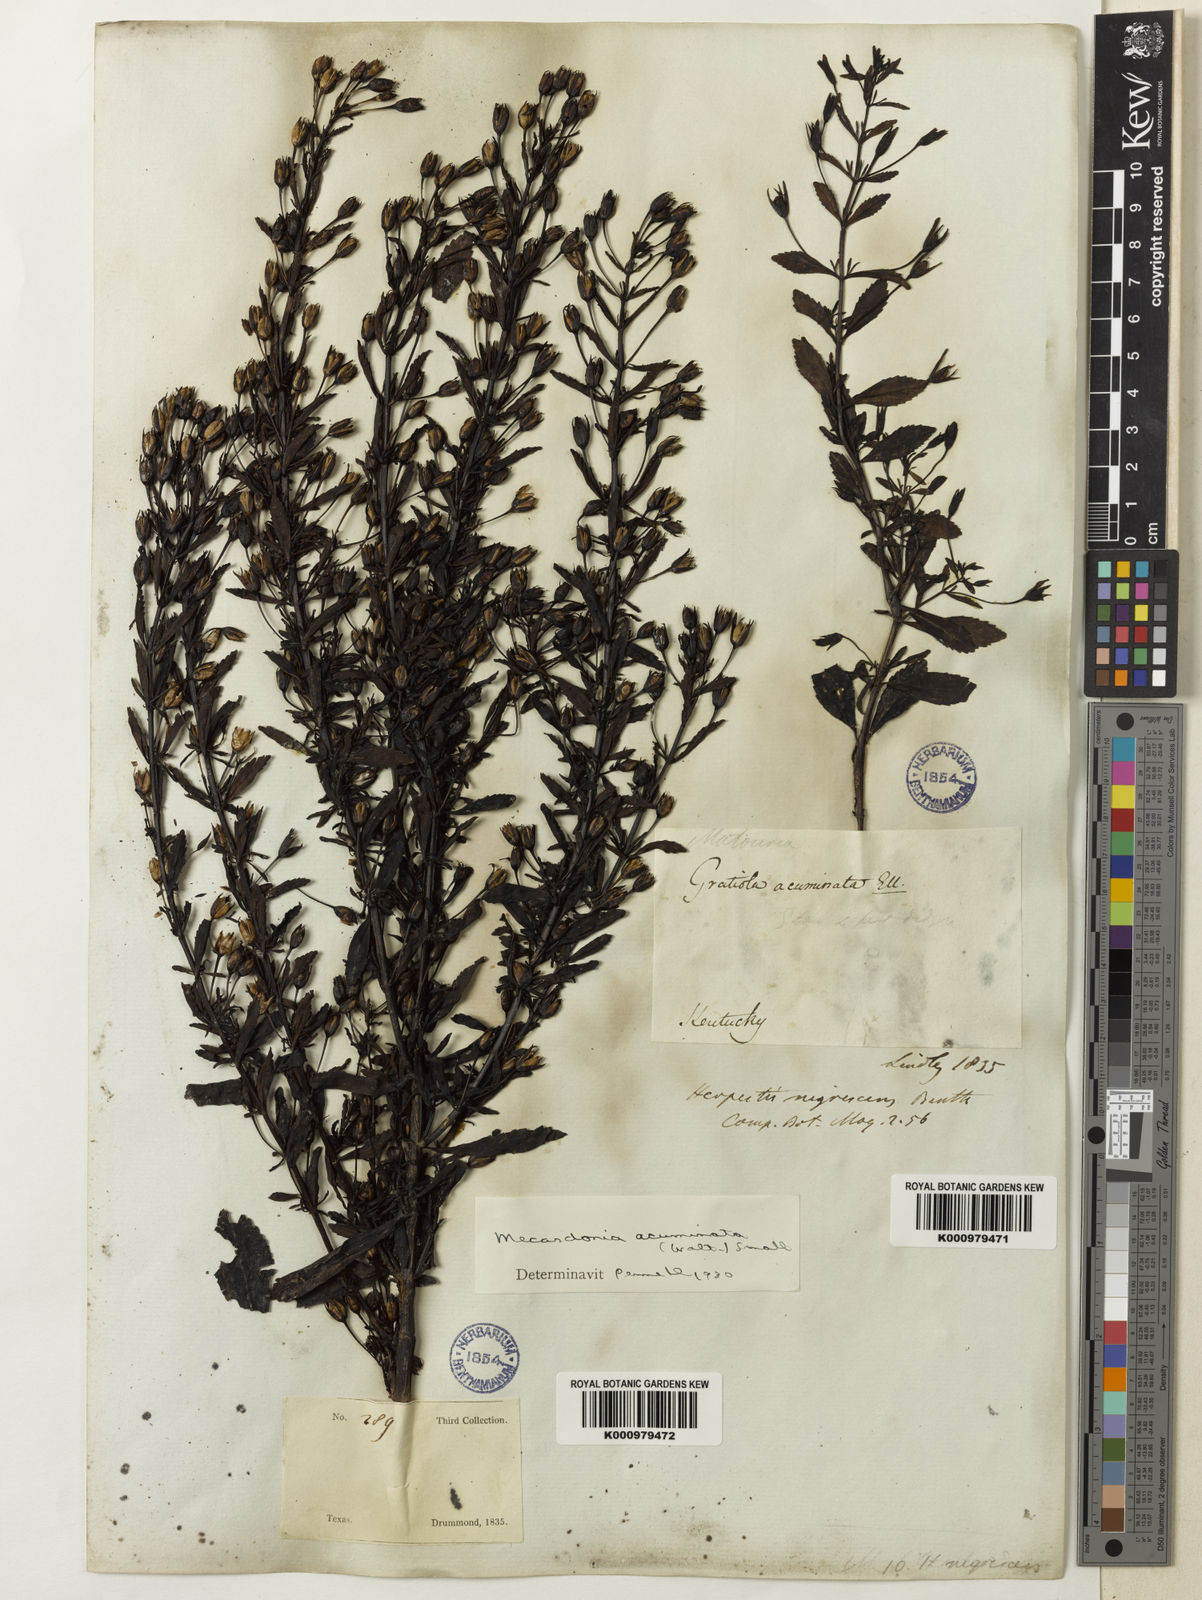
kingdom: Plantae
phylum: Tracheophyta
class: Magnoliopsida
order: Lamiales
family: Plantaginaceae
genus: Mecardonia
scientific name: Mecardonia
